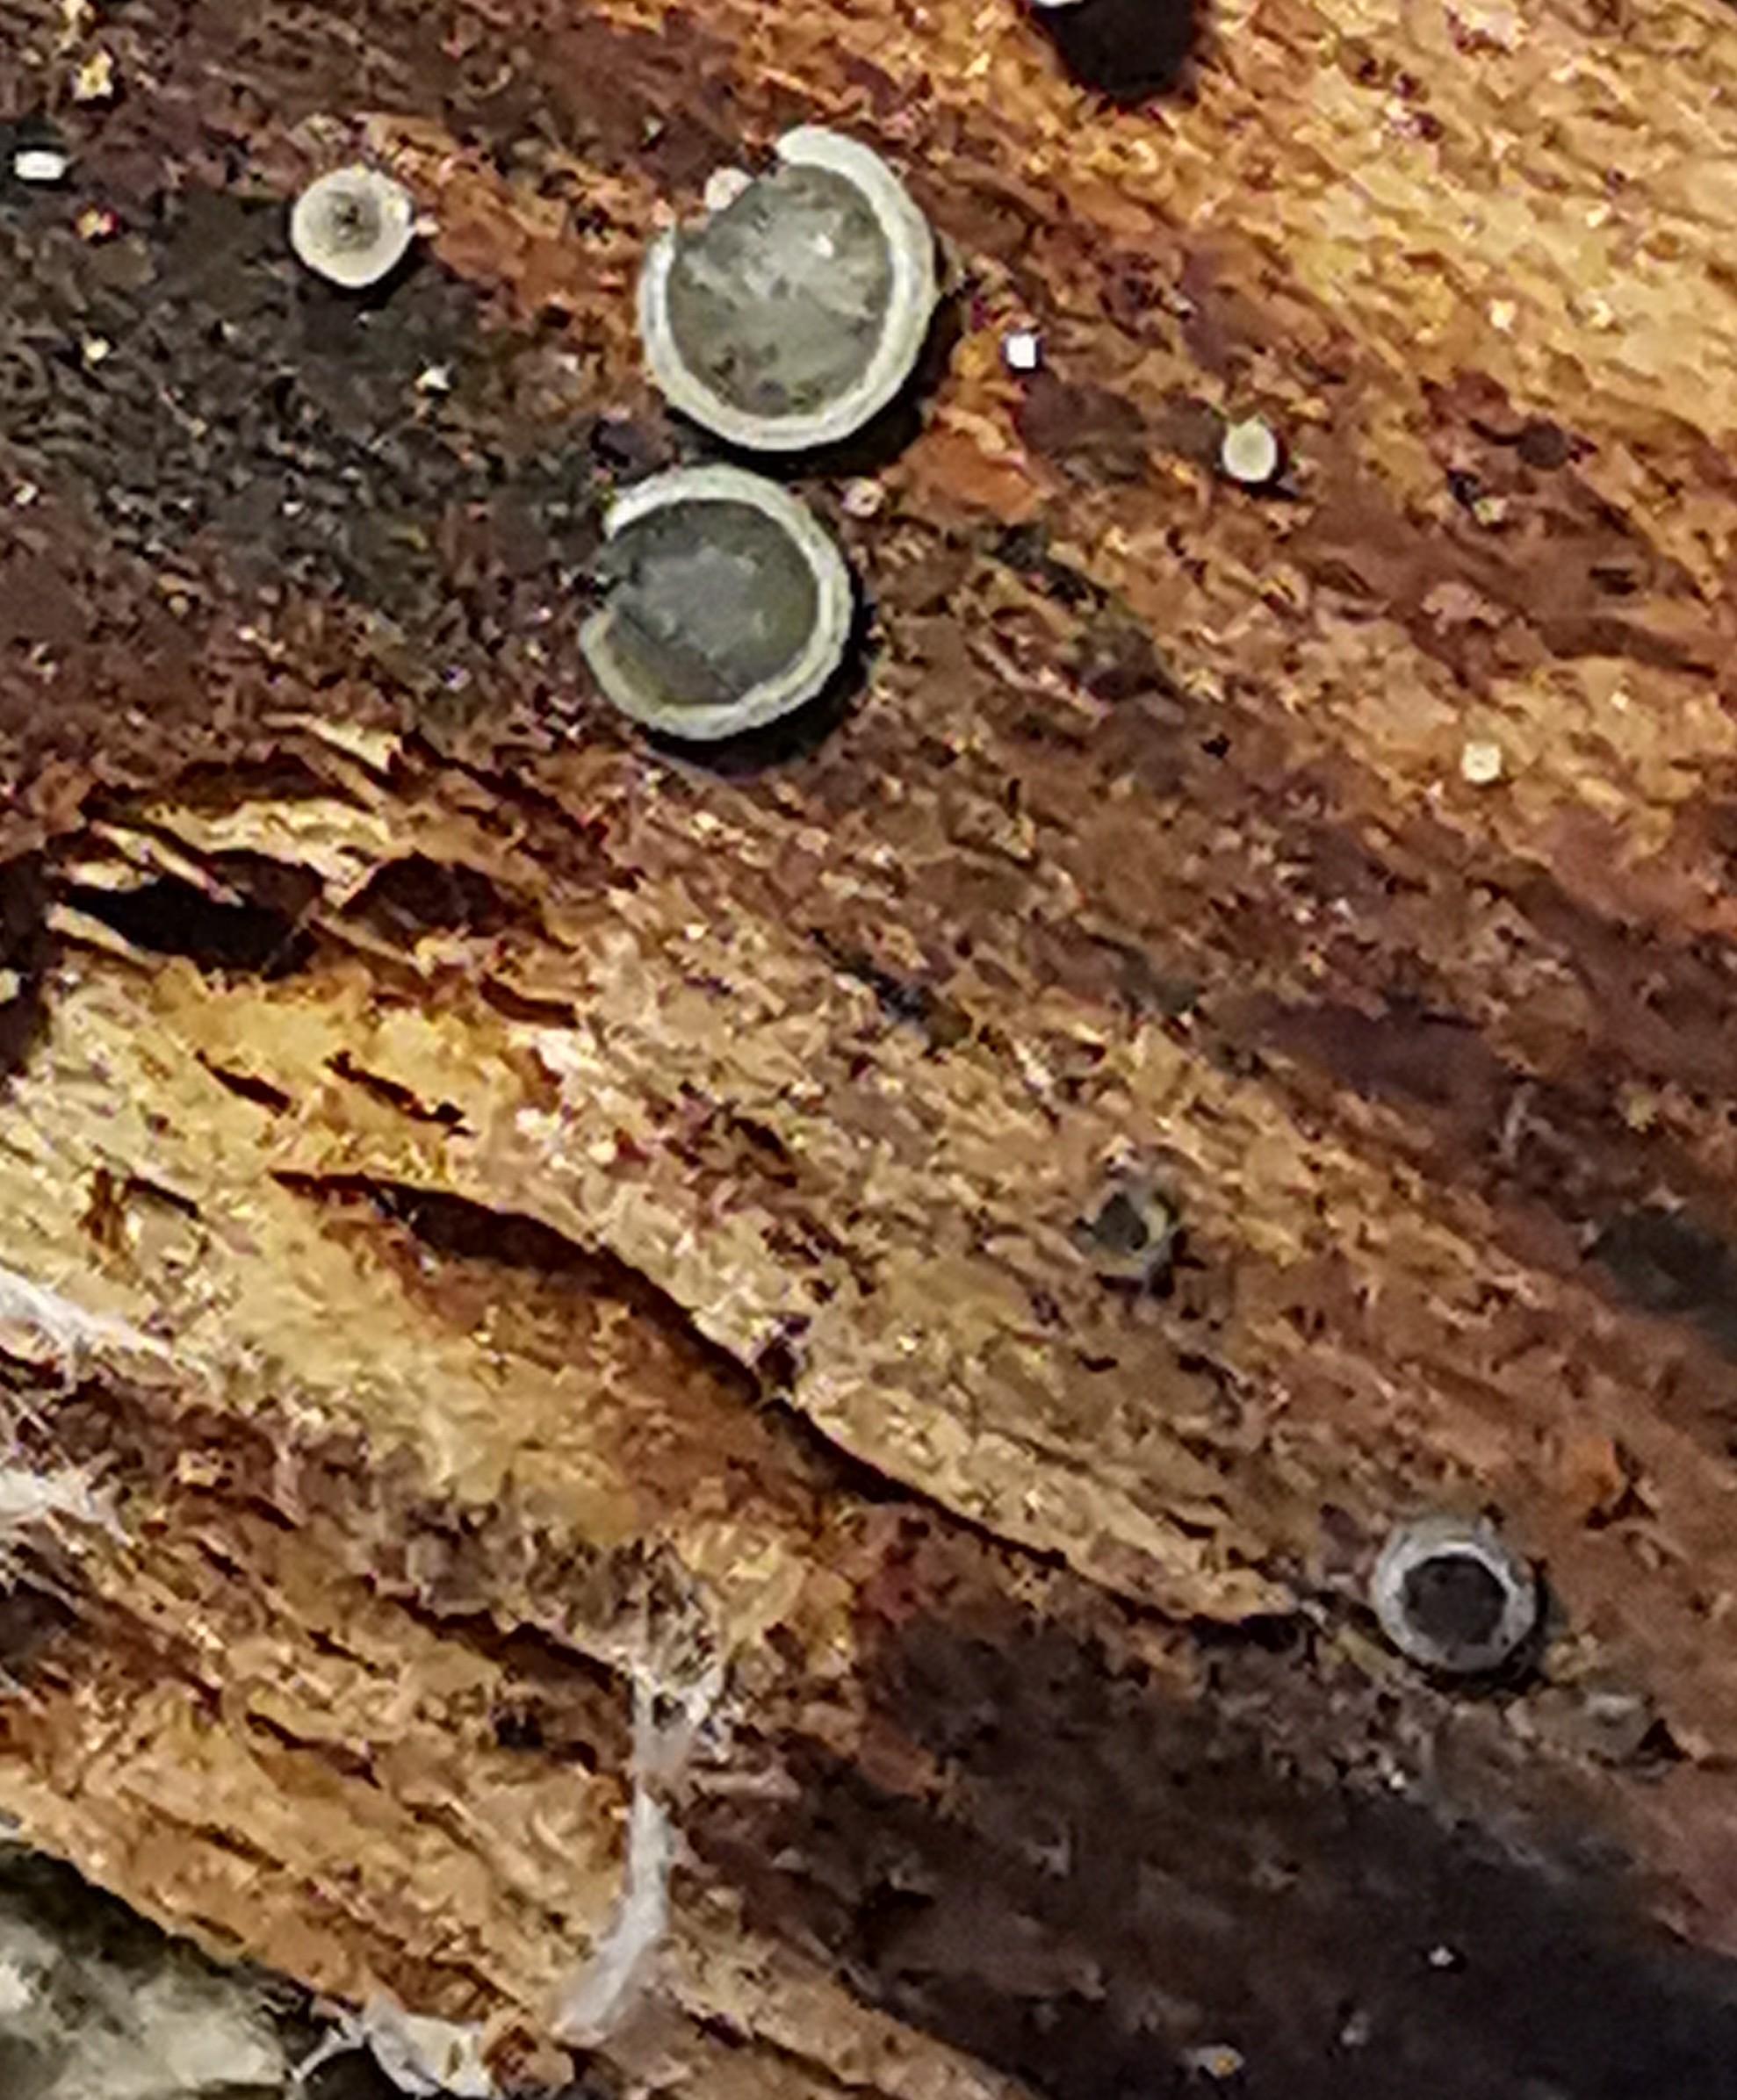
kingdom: Fungi
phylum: Ascomycota
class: Leotiomycetes
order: Helotiales
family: Mollisiaceae
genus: Mollisia
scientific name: Mollisia cinerea
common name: almindelig gråskive
